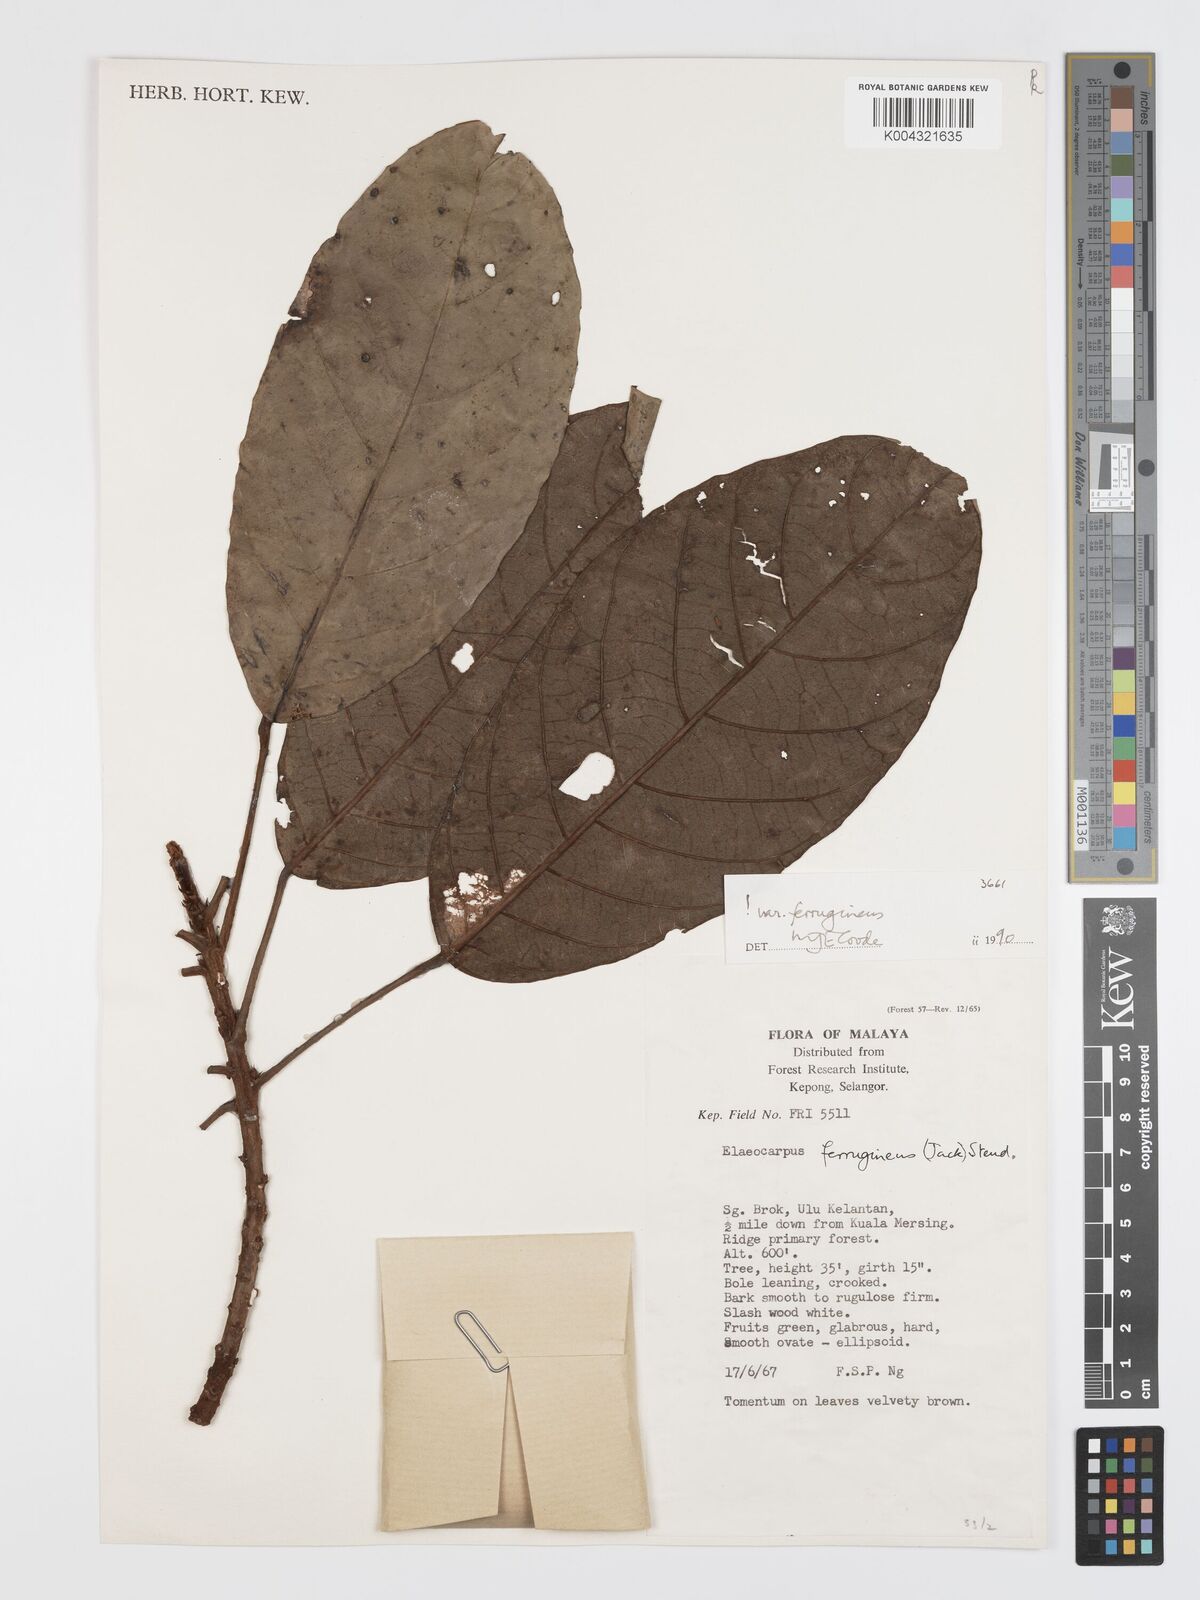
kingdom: Plantae
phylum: Tracheophyta
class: Magnoliopsida
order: Oxalidales
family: Elaeocarpaceae
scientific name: Elaeocarpaceae
